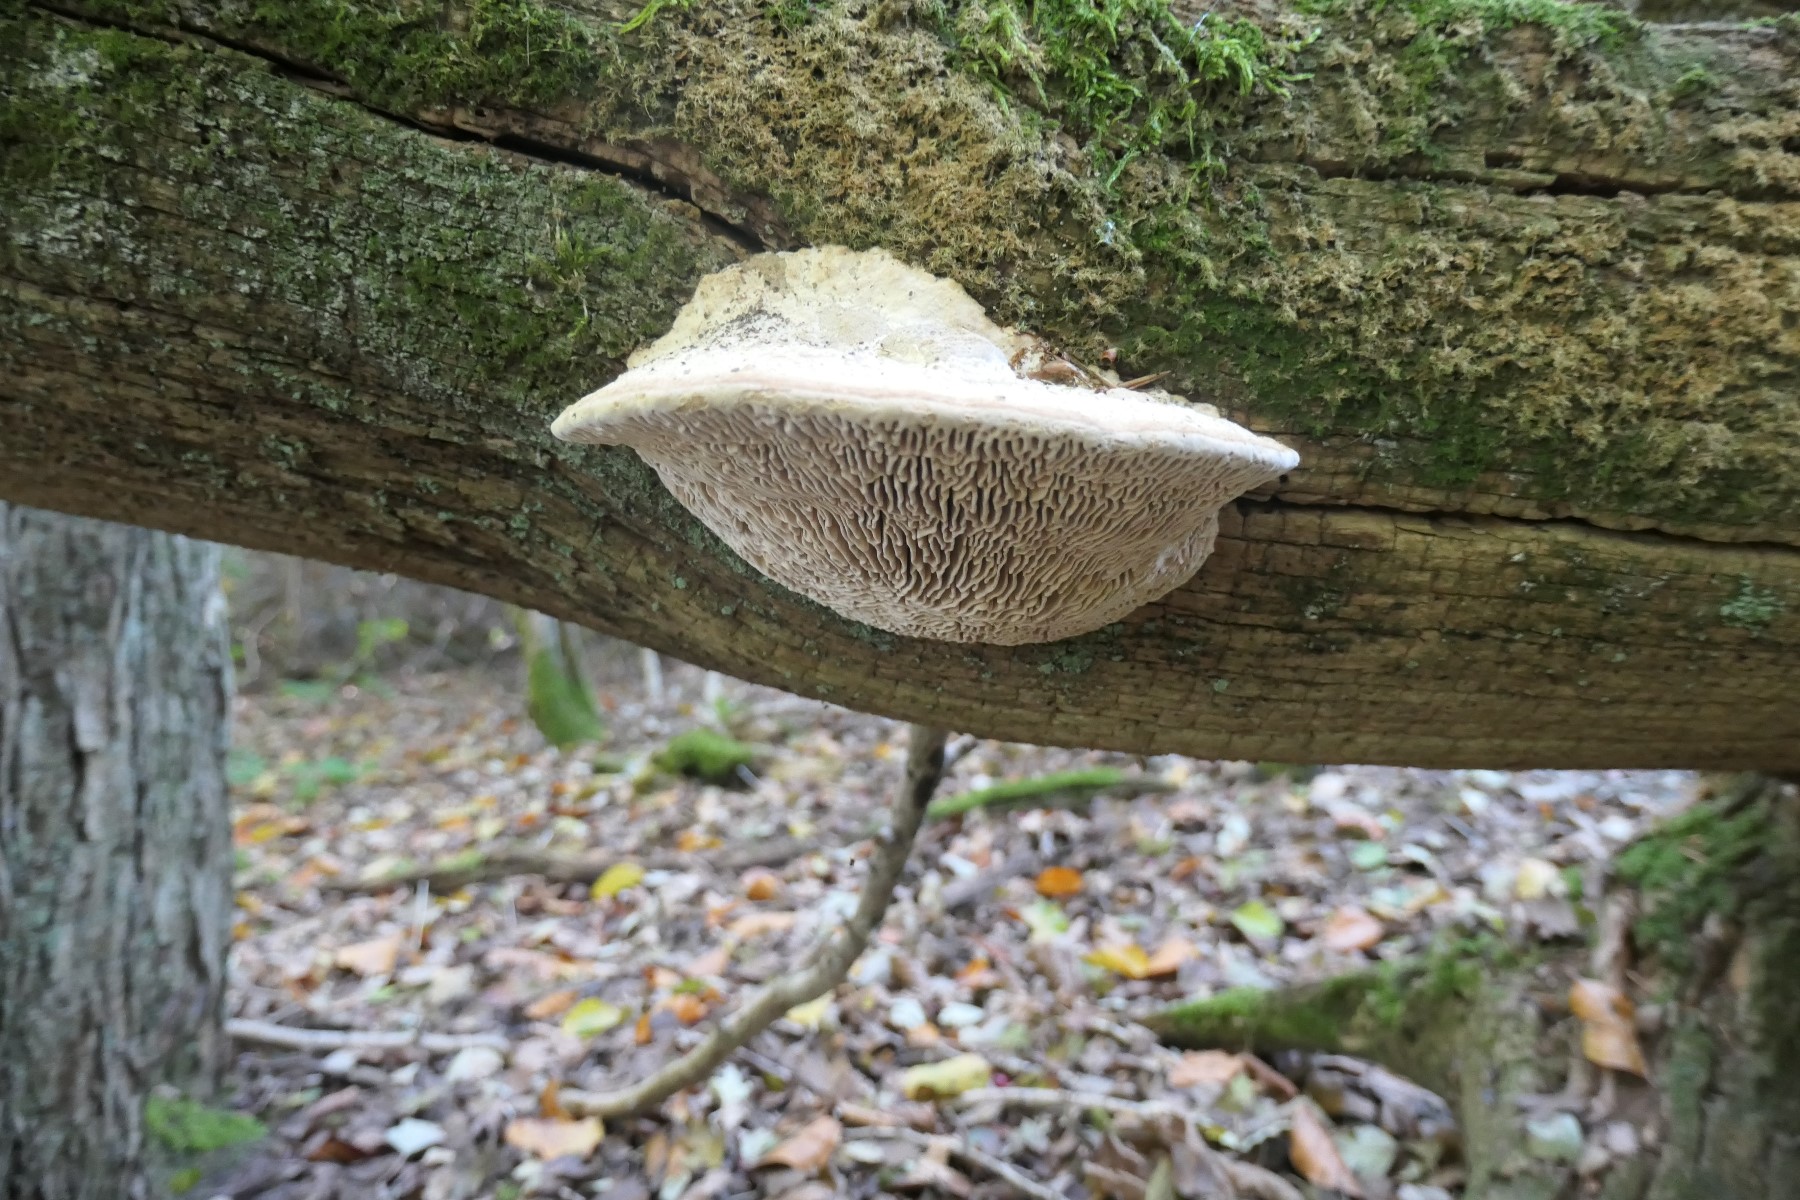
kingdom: Fungi
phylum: Basidiomycota
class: Agaricomycetes
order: Polyporales
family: Fomitopsidaceae
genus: Daedalea
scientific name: Daedalea quercina
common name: ege-labyrintsvamp
